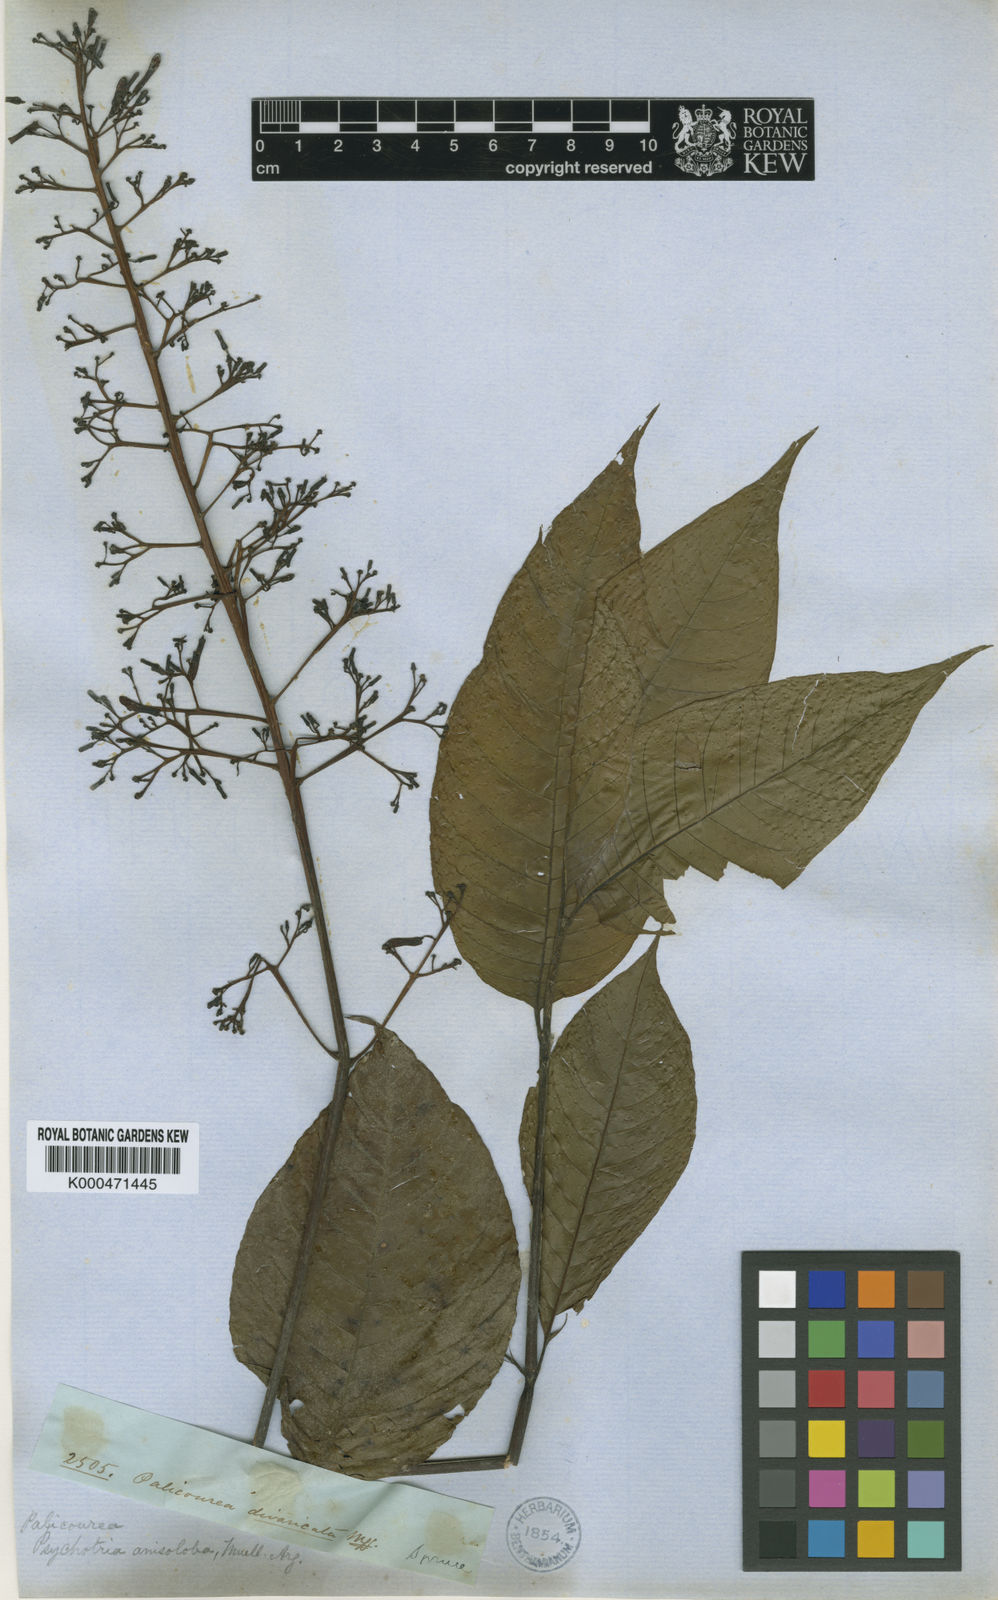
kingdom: Plantae
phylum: Tracheophyta
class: Magnoliopsida
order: Gentianales
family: Rubiaceae
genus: Palicourea
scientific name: Palicourea
